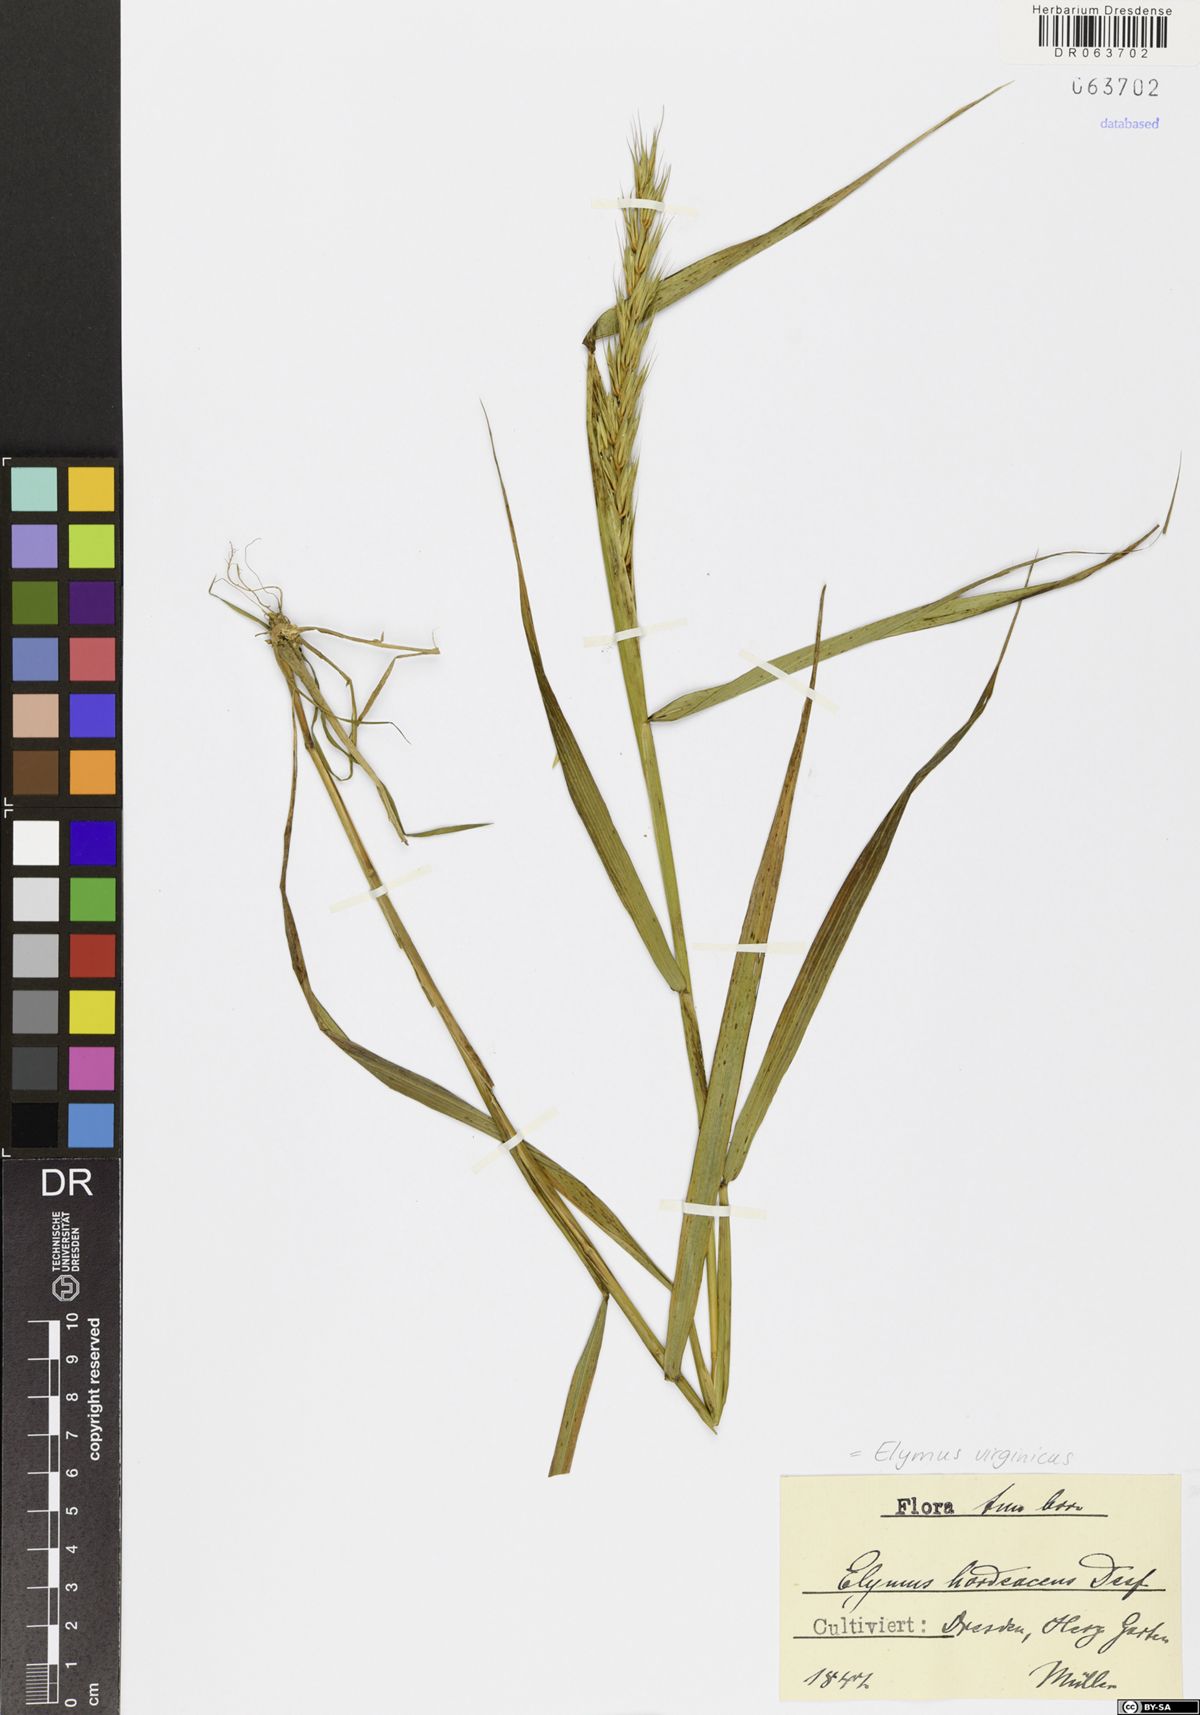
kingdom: Plantae
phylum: Tracheophyta
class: Liliopsida
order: Poales
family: Poaceae
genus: Elymus
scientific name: Elymus virginicus
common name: Common eastern wildrye
